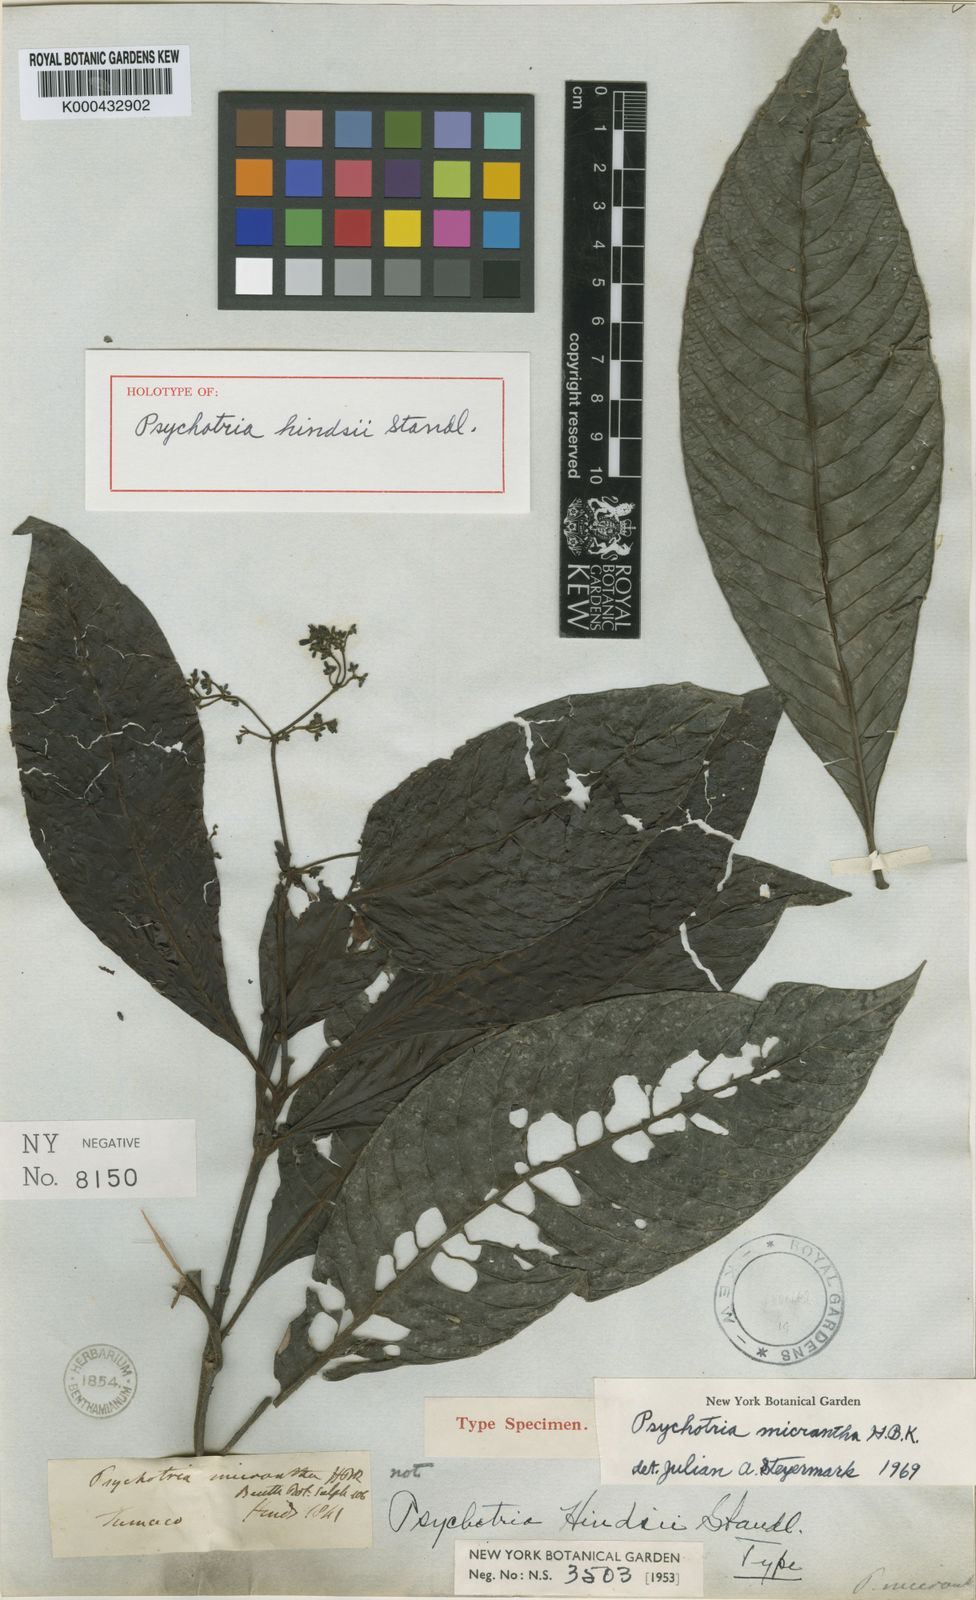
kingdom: Plantae
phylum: Tracheophyta
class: Magnoliopsida
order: Gentianales
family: Rubiaceae
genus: Psychotria
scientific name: Psychotria micrantha
